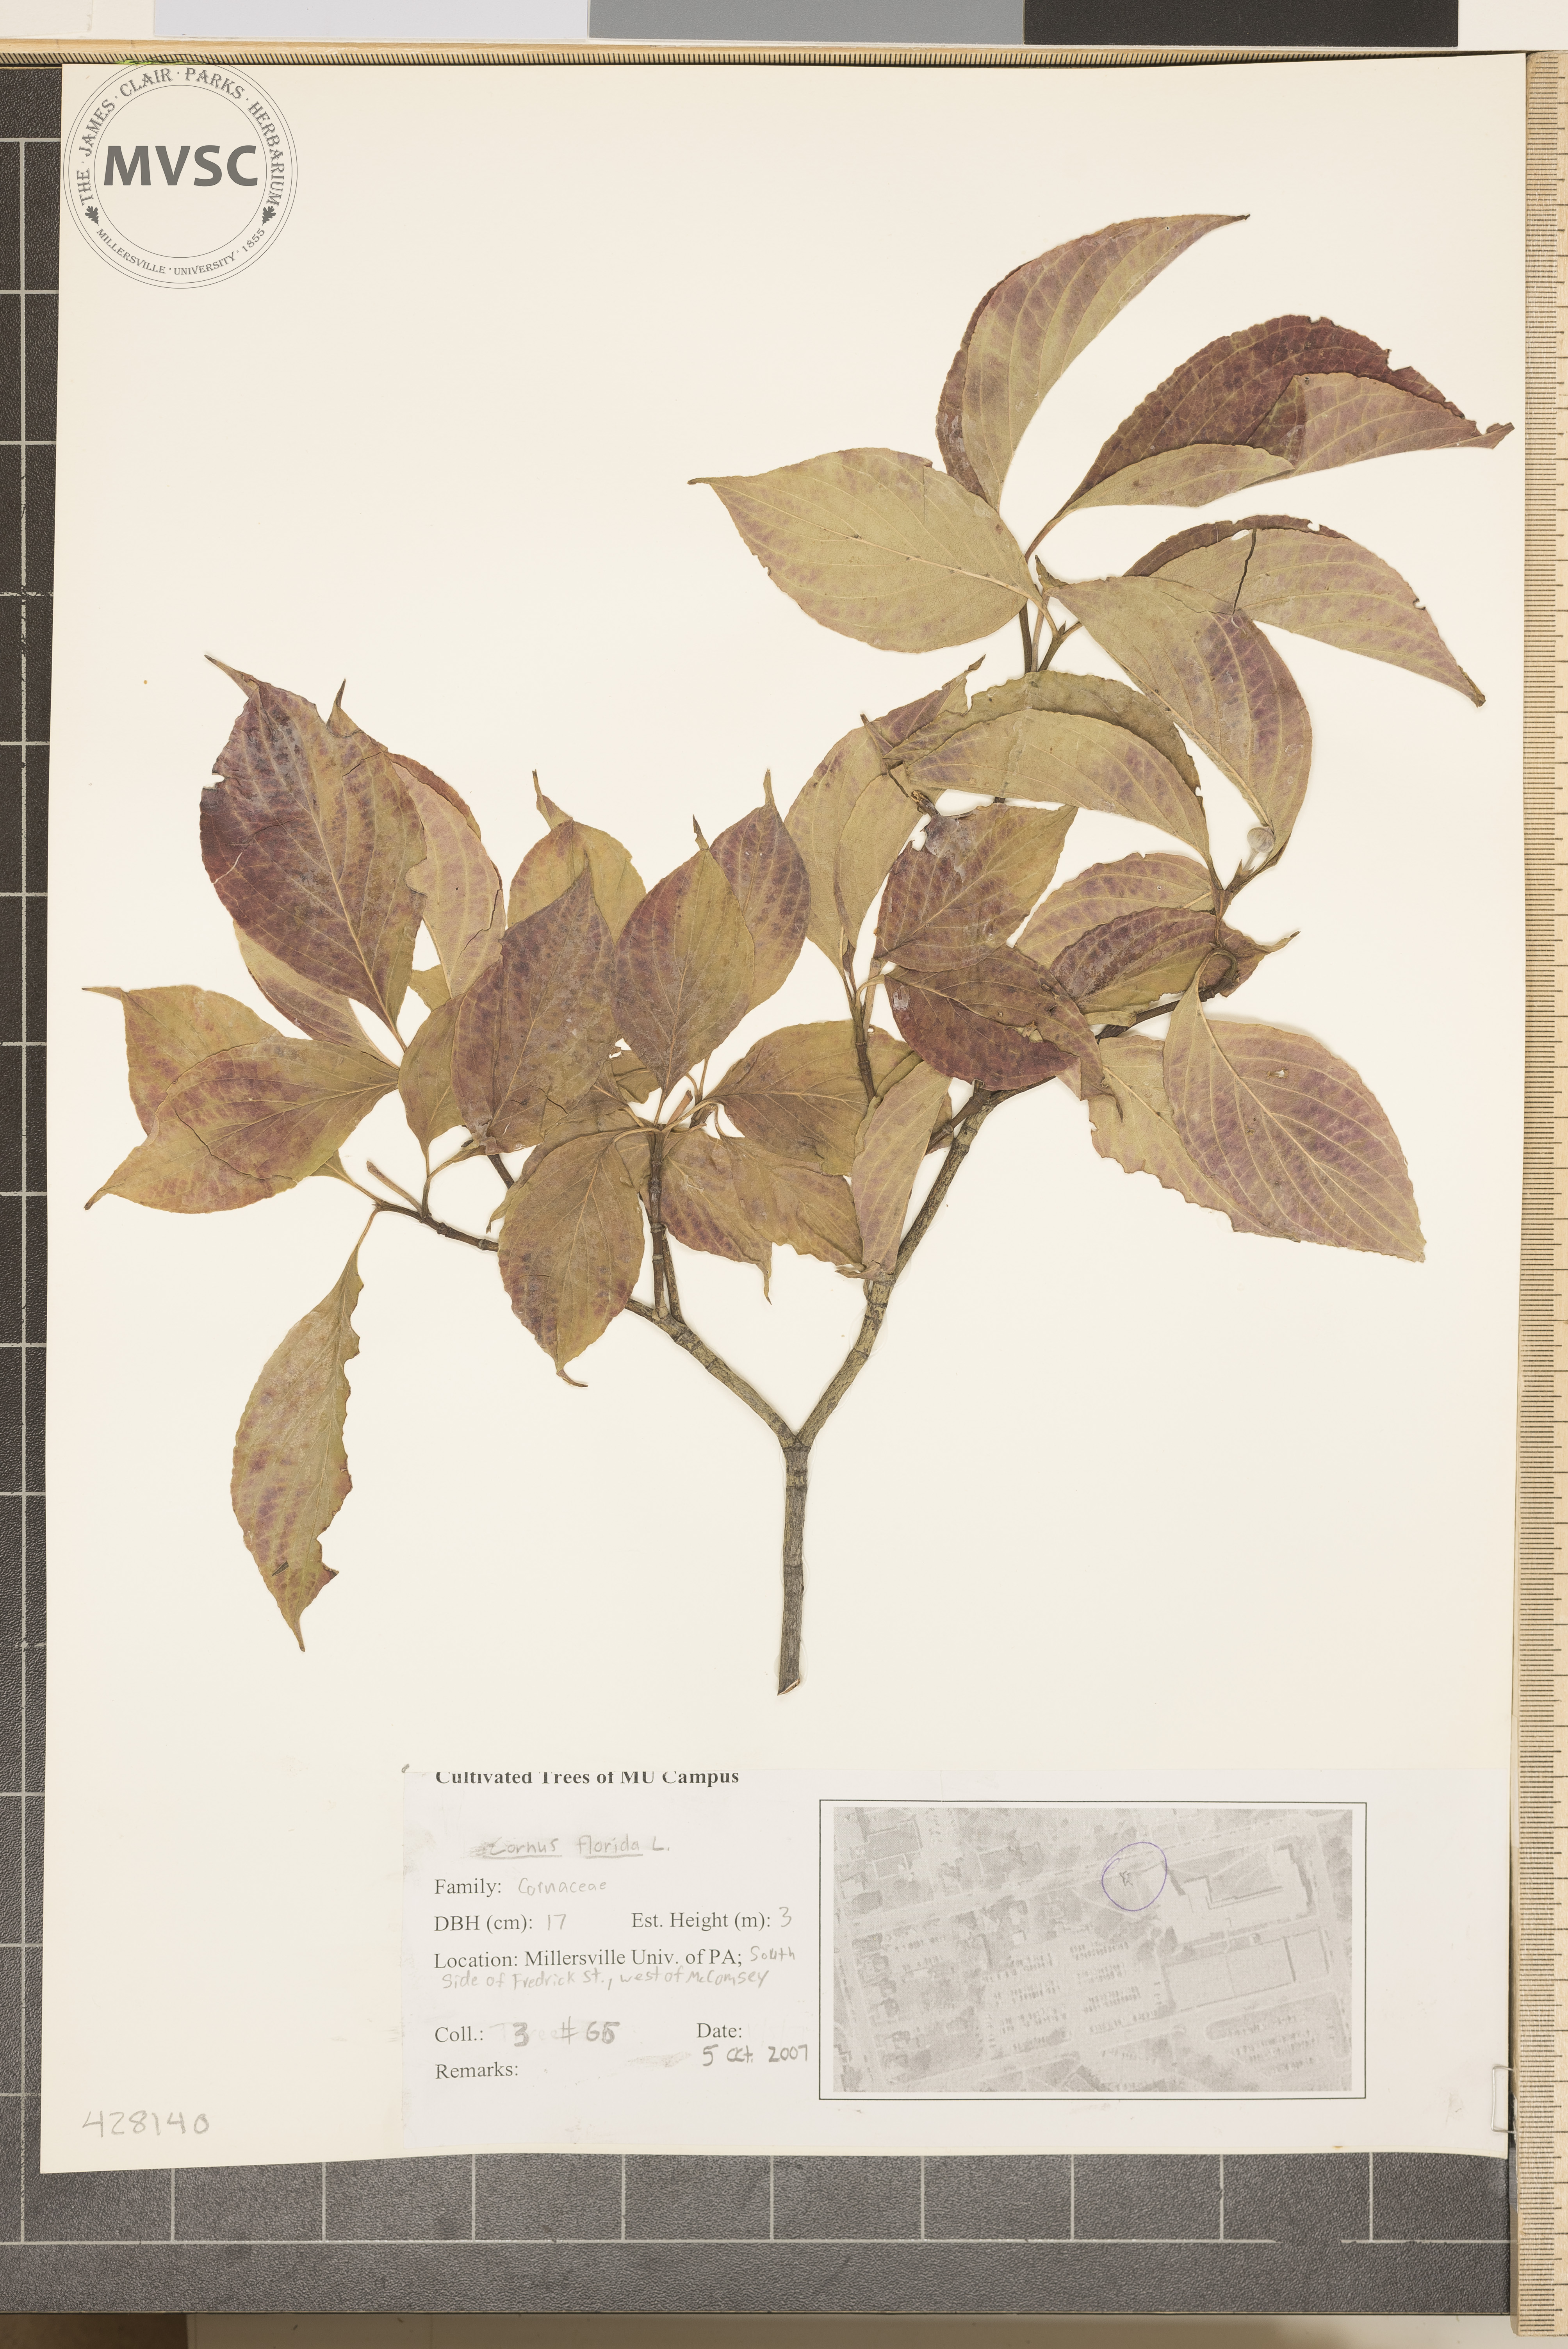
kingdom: Plantae
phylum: Tracheophyta
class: Magnoliopsida
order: Cornales
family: Cornaceae
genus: Cornus
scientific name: Cornus florida
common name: Flowering Dogwood
